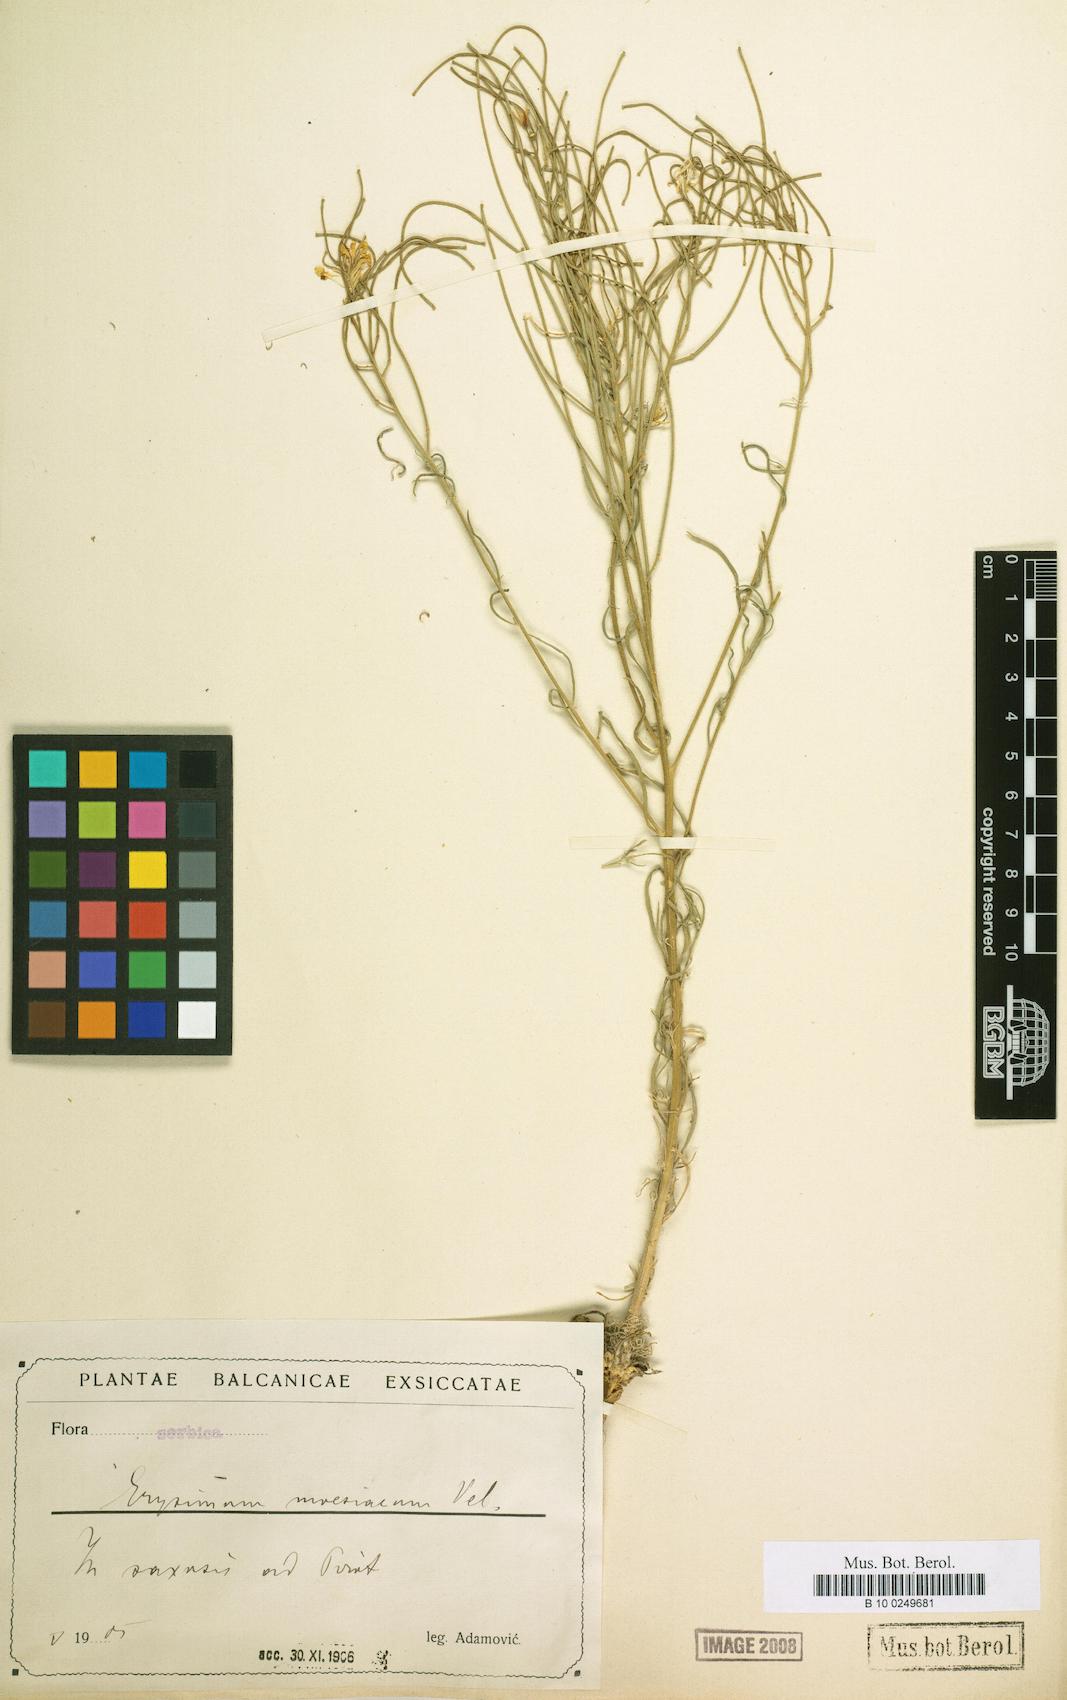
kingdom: Plantae
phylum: Tracheophyta
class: Magnoliopsida
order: Brassicales
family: Brassicaceae
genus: Erysimum
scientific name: Erysimum moesiacum
